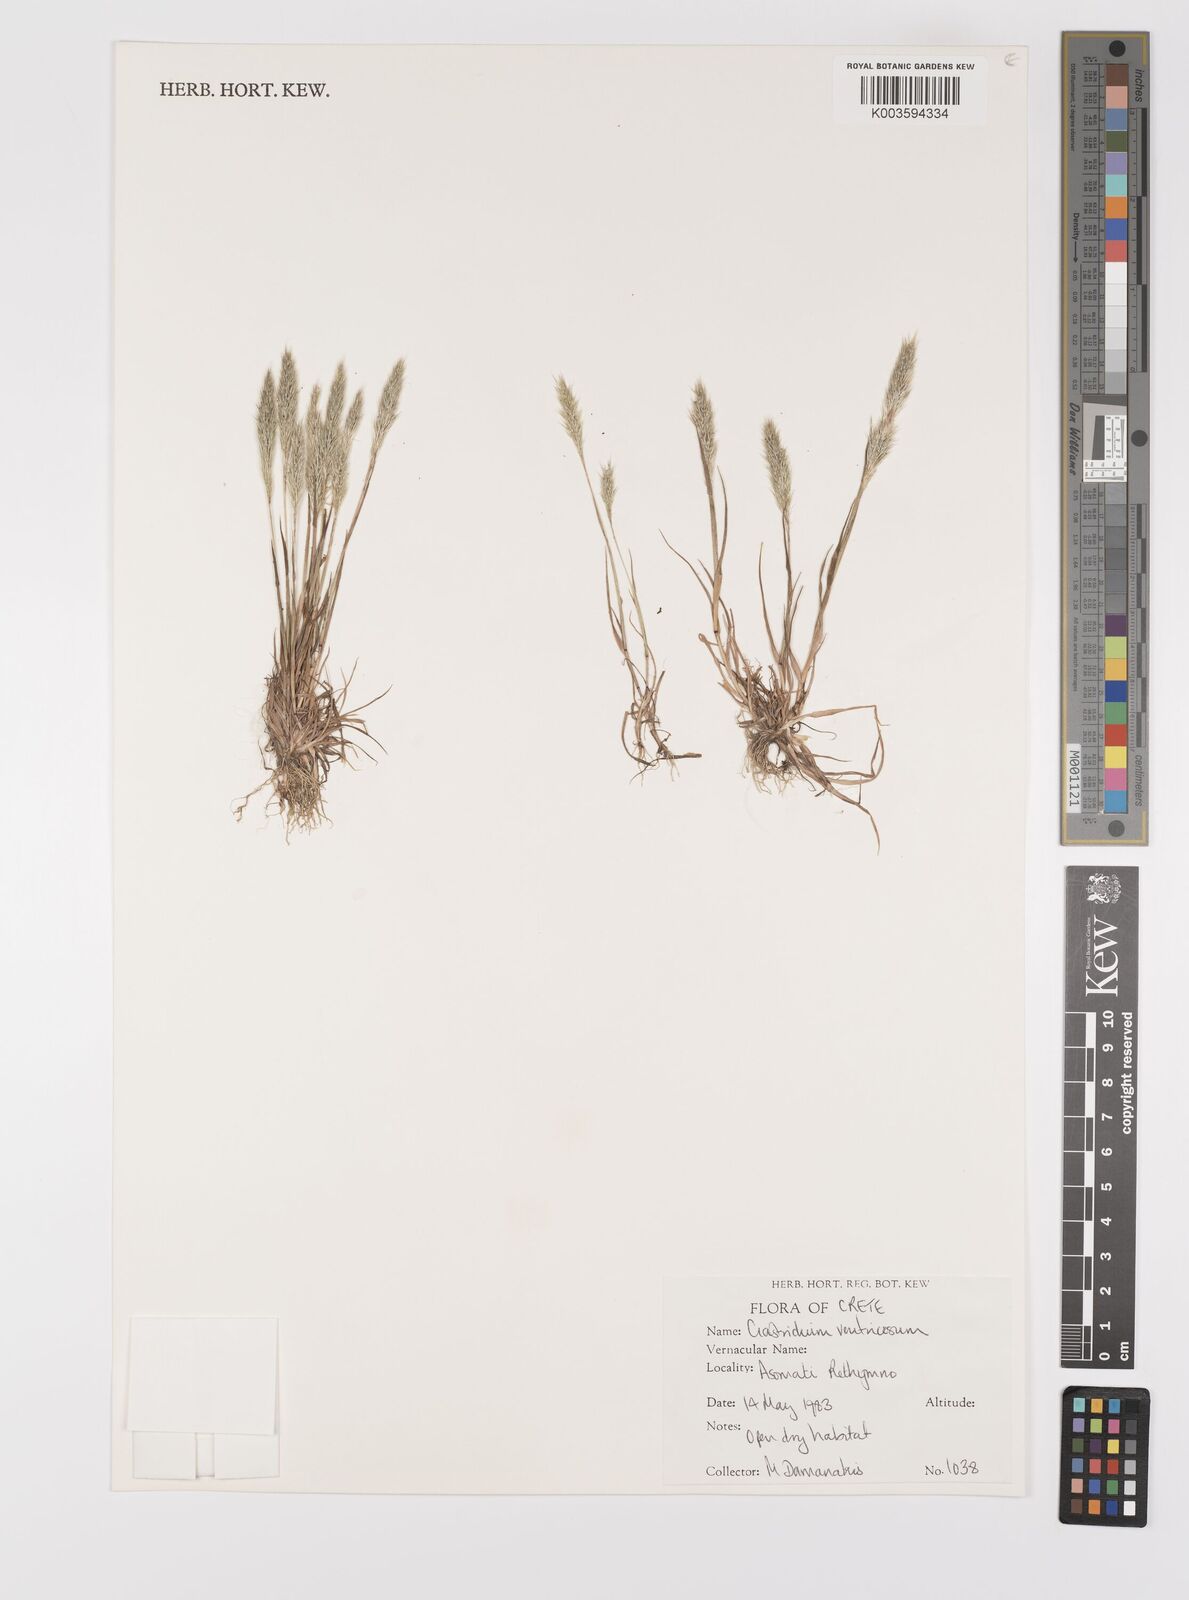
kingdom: Plantae
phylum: Tracheophyta
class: Liliopsida
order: Poales
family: Poaceae
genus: Gastridium
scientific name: Gastridium ventricosum
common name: Nit-grass
